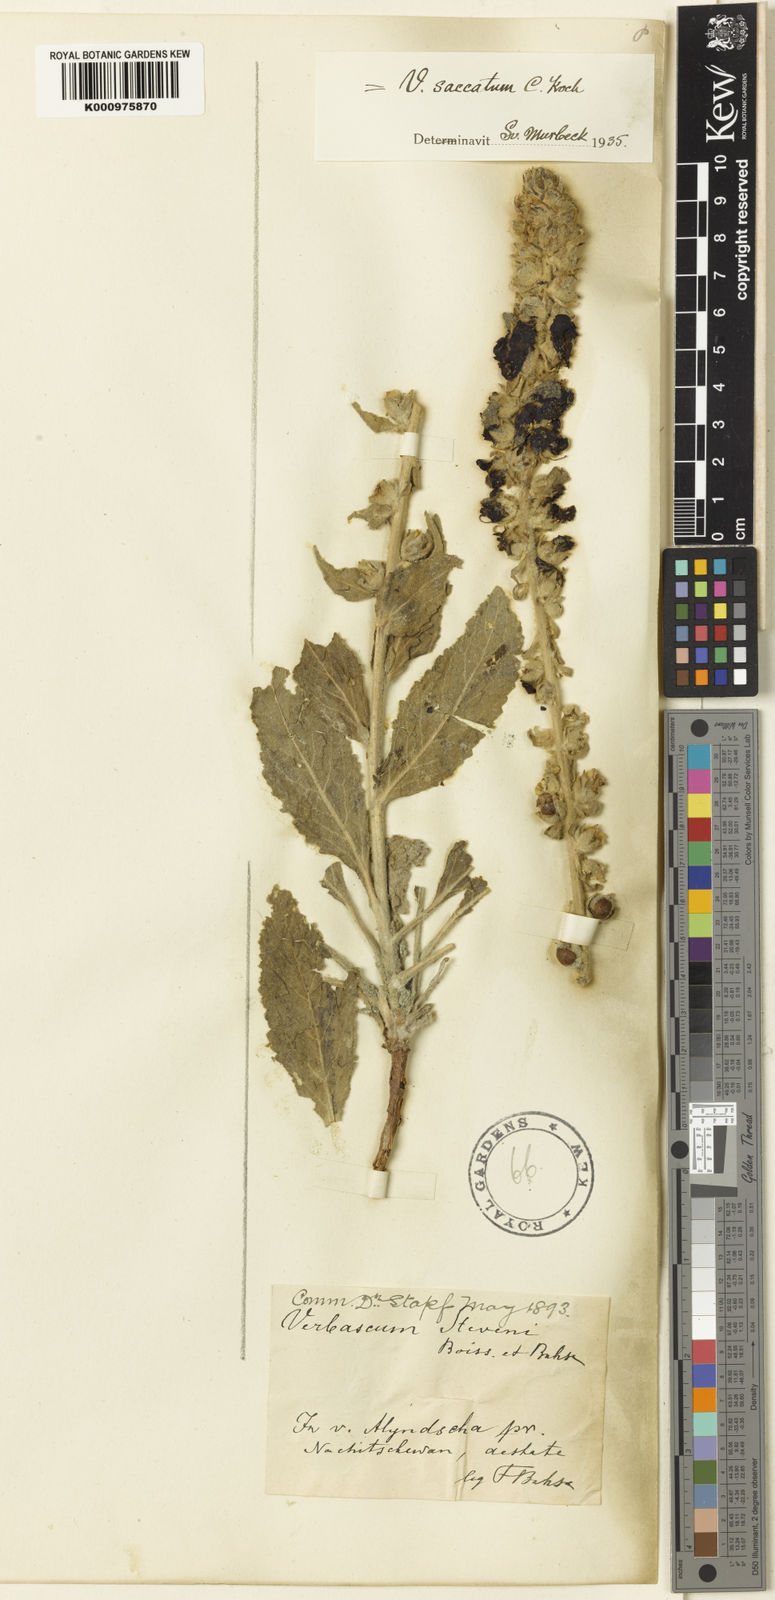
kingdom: Plantae
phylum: Tracheophyta
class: Magnoliopsida
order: Lamiales
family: Scrophulariaceae
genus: Verbascum
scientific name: Verbascum saccatum
